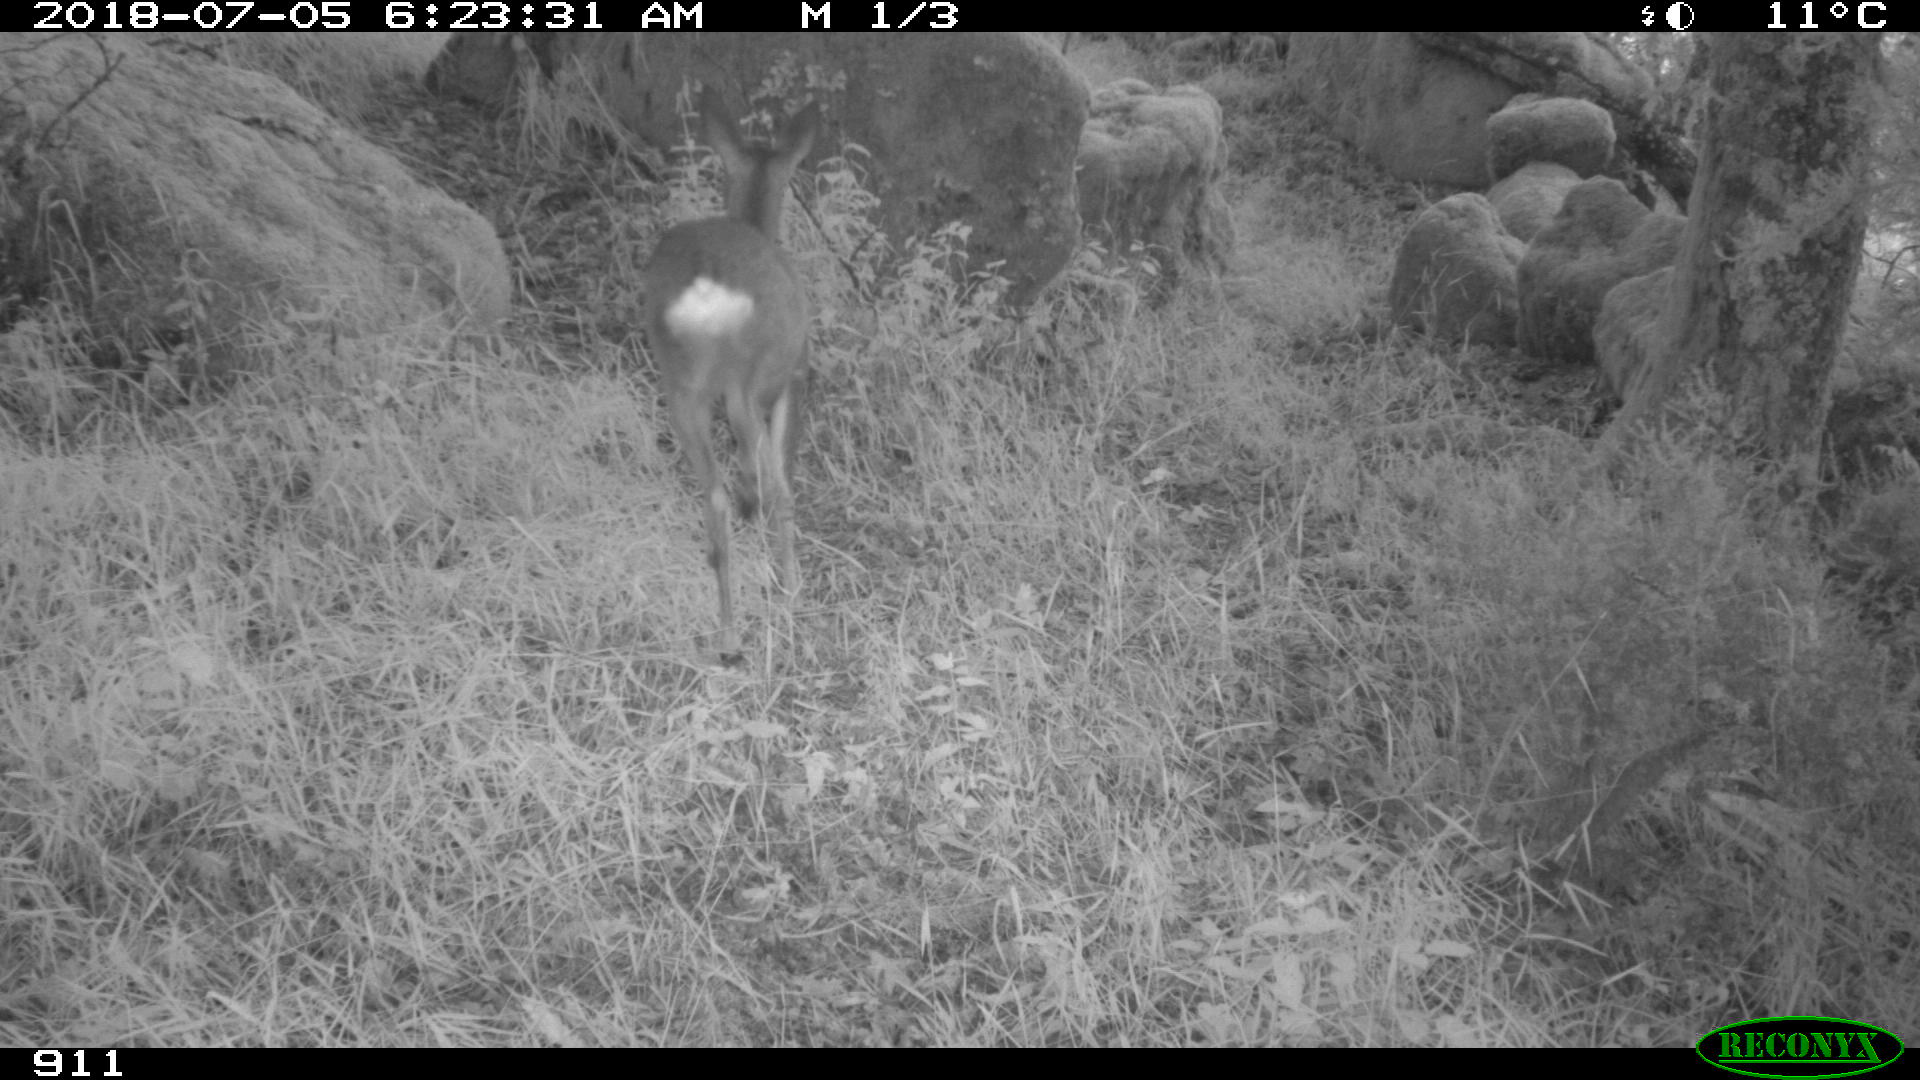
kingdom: Animalia
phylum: Chordata
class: Mammalia
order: Artiodactyla
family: Cervidae
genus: Capreolus
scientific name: Capreolus capreolus
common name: Western roe deer
